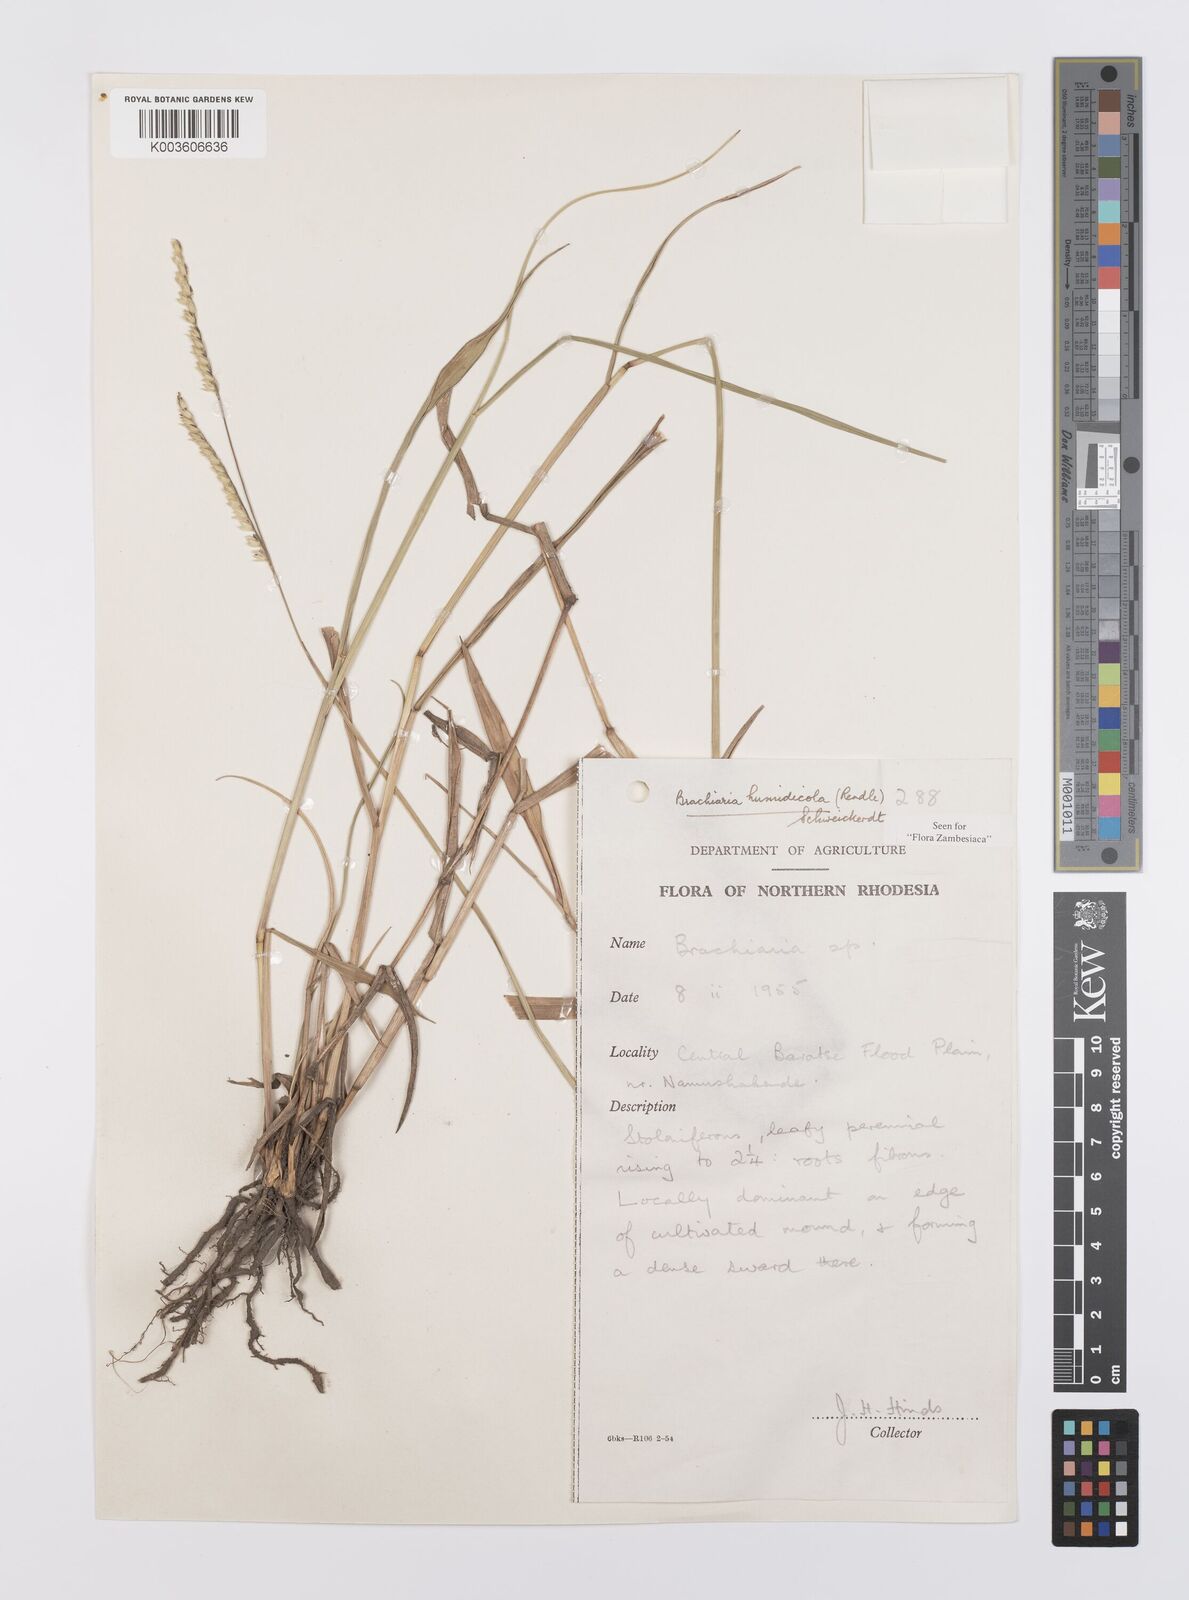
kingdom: Plantae
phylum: Tracheophyta
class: Liliopsida
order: Poales
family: Poaceae
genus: Urochloa
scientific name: Urochloa dictyoneura
